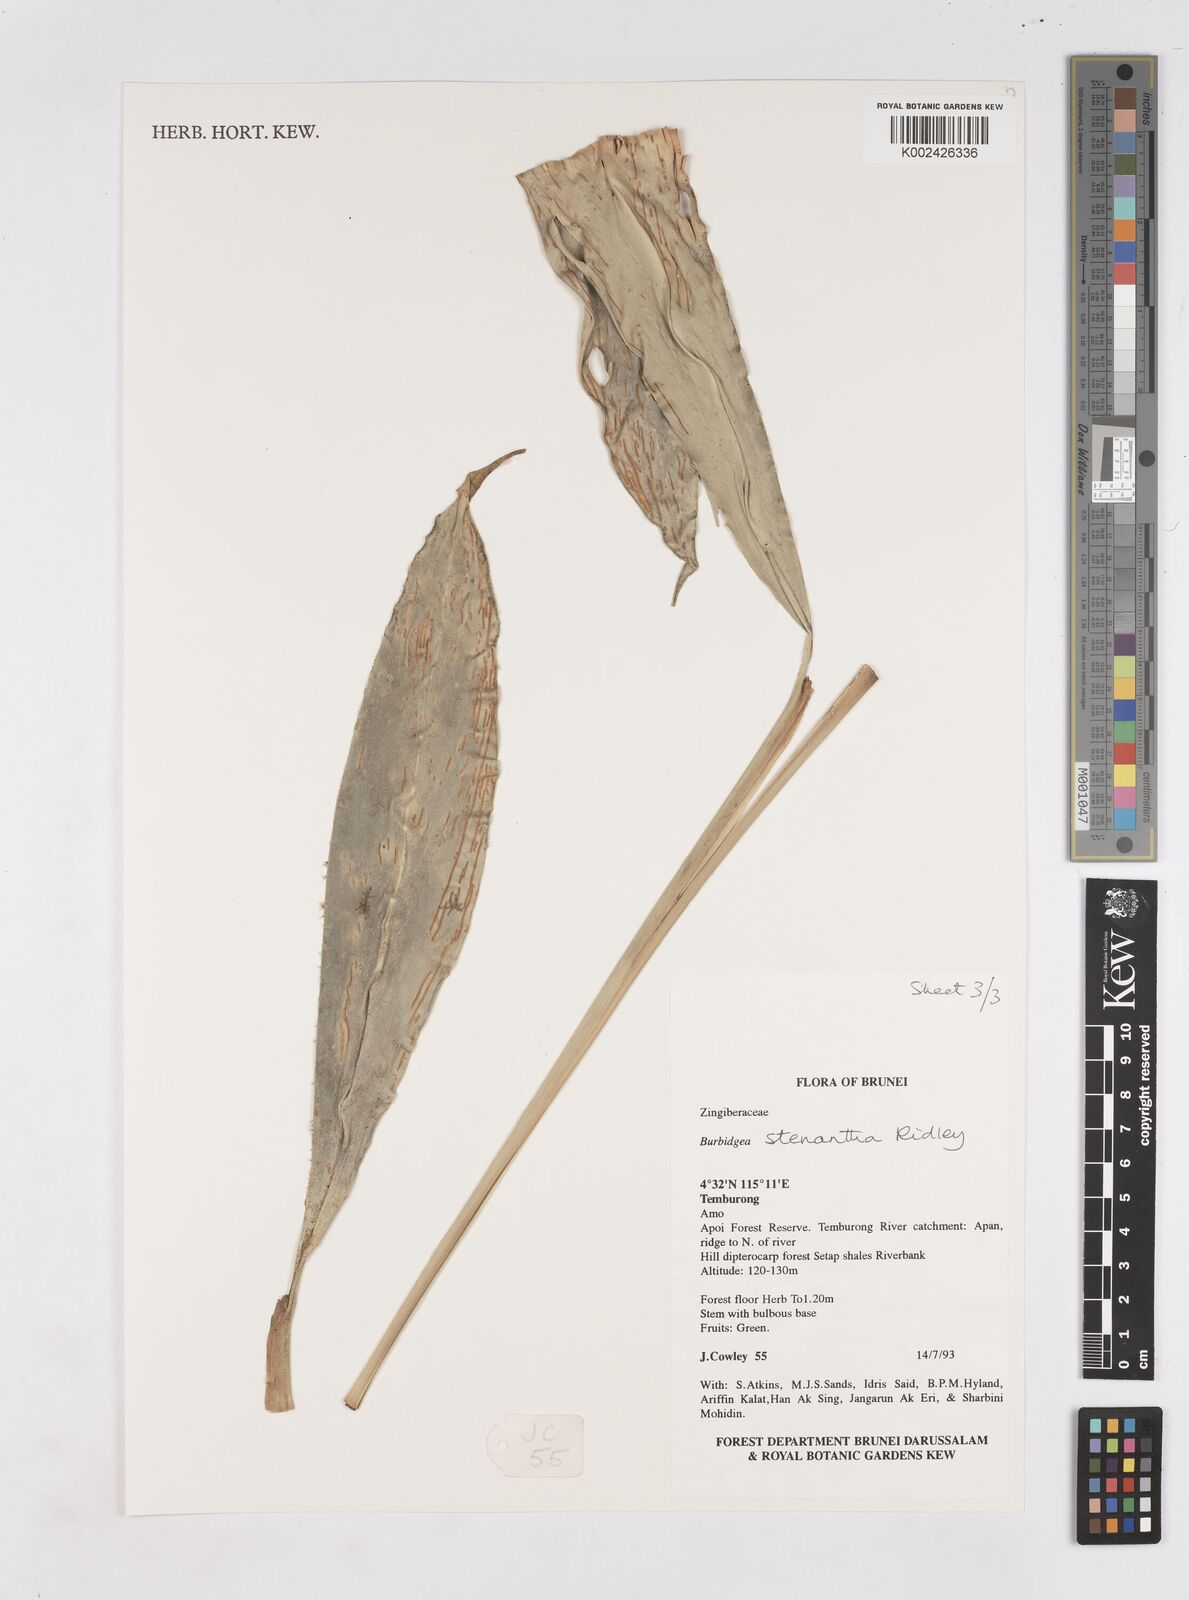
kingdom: Plantae
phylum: Tracheophyta
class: Liliopsida
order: Zingiberales
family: Zingiberaceae
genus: Burbidgea
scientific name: Burbidgea stenantha
